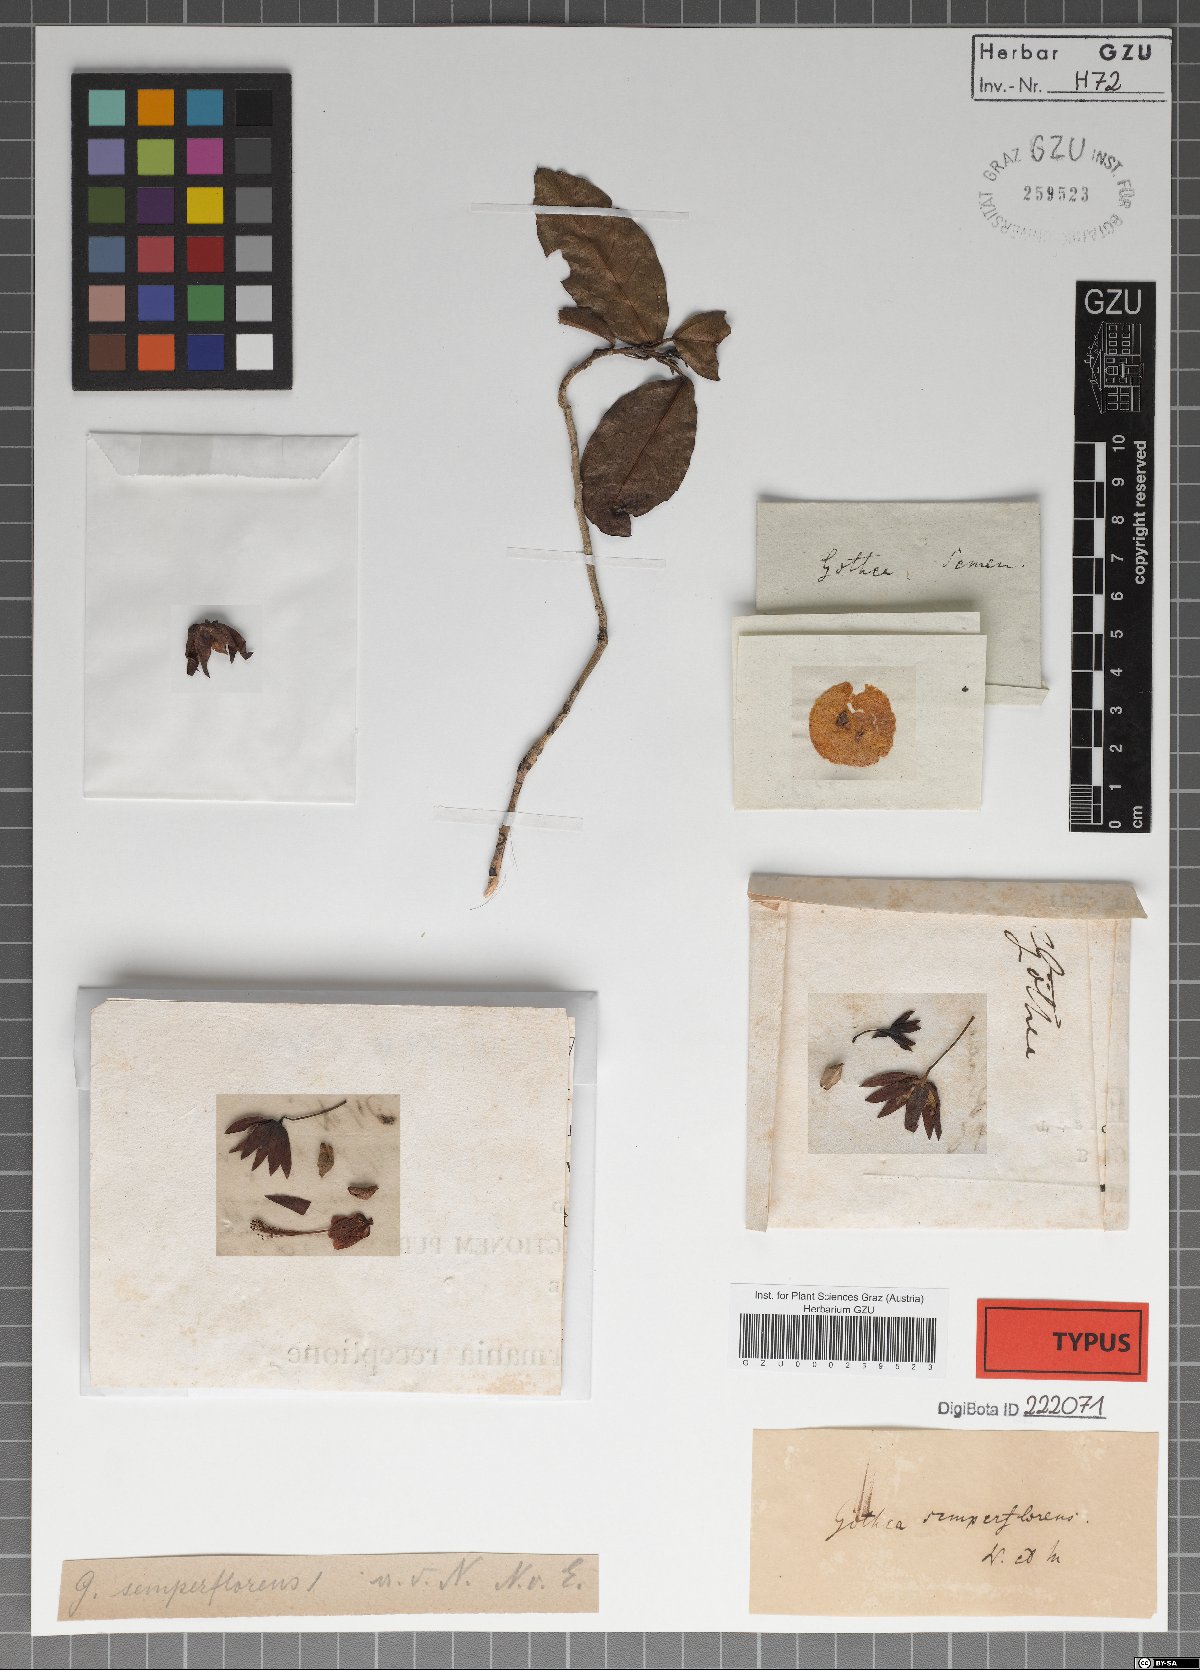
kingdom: Plantae
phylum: Tracheophyta
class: Magnoliopsida
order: Malvales
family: Malvaceae
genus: Pavonia
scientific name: Pavonia semiserrata
